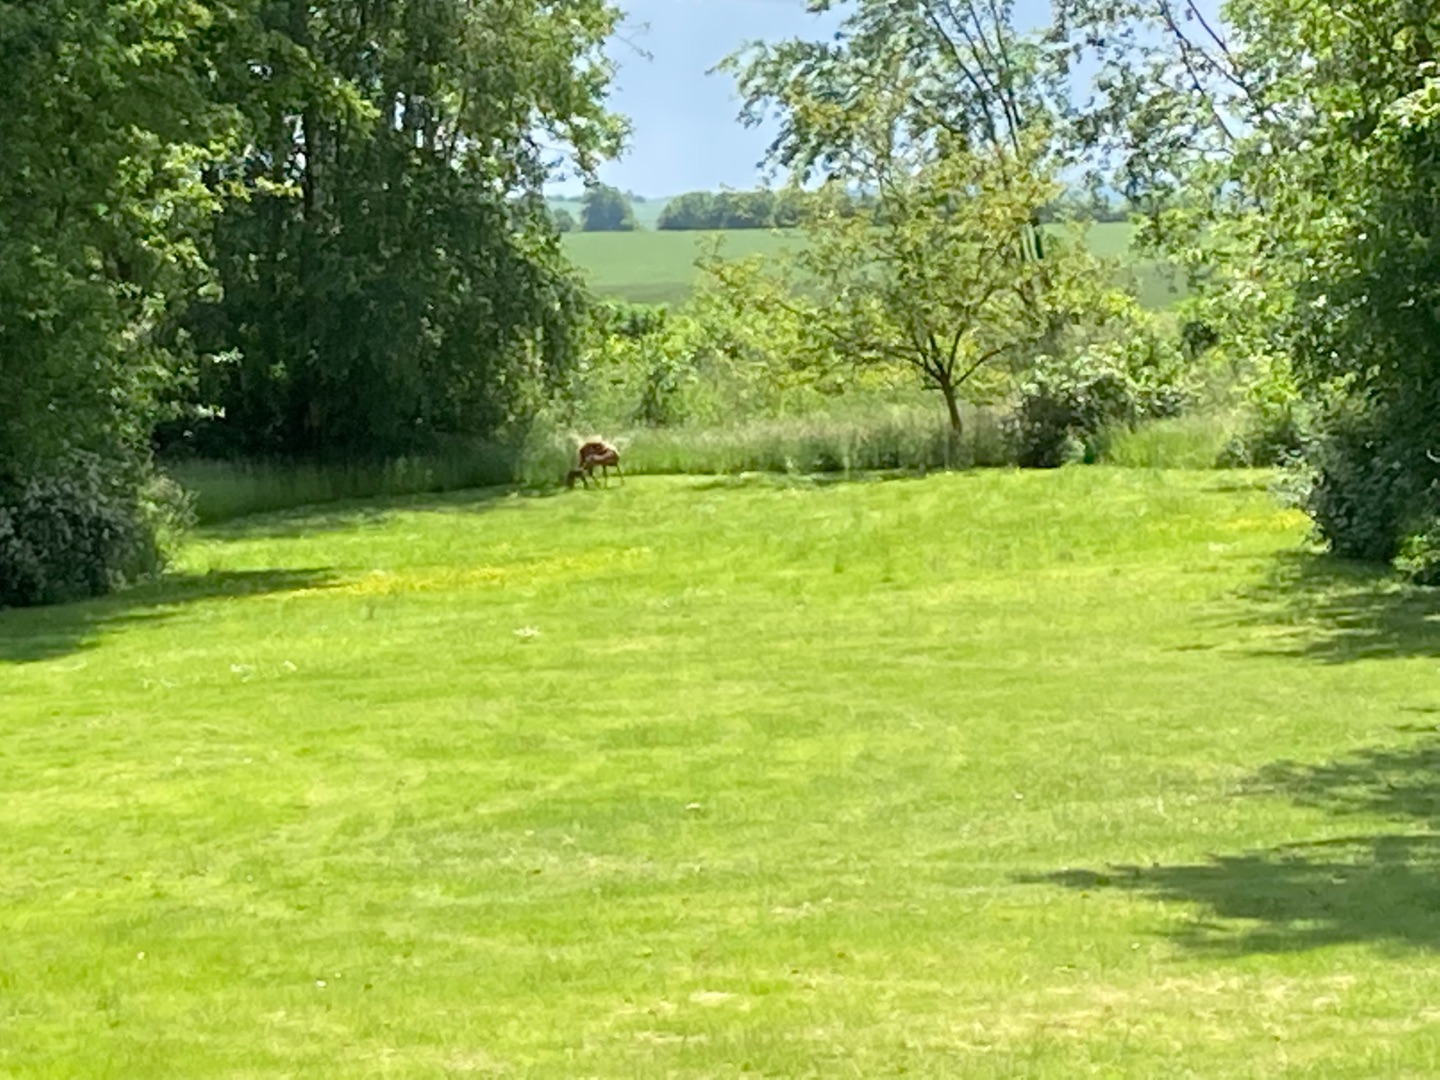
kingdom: Animalia
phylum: Chordata
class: Mammalia
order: Artiodactyla
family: Cervidae
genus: Capreolus
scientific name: Capreolus capreolus
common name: Rådyr
